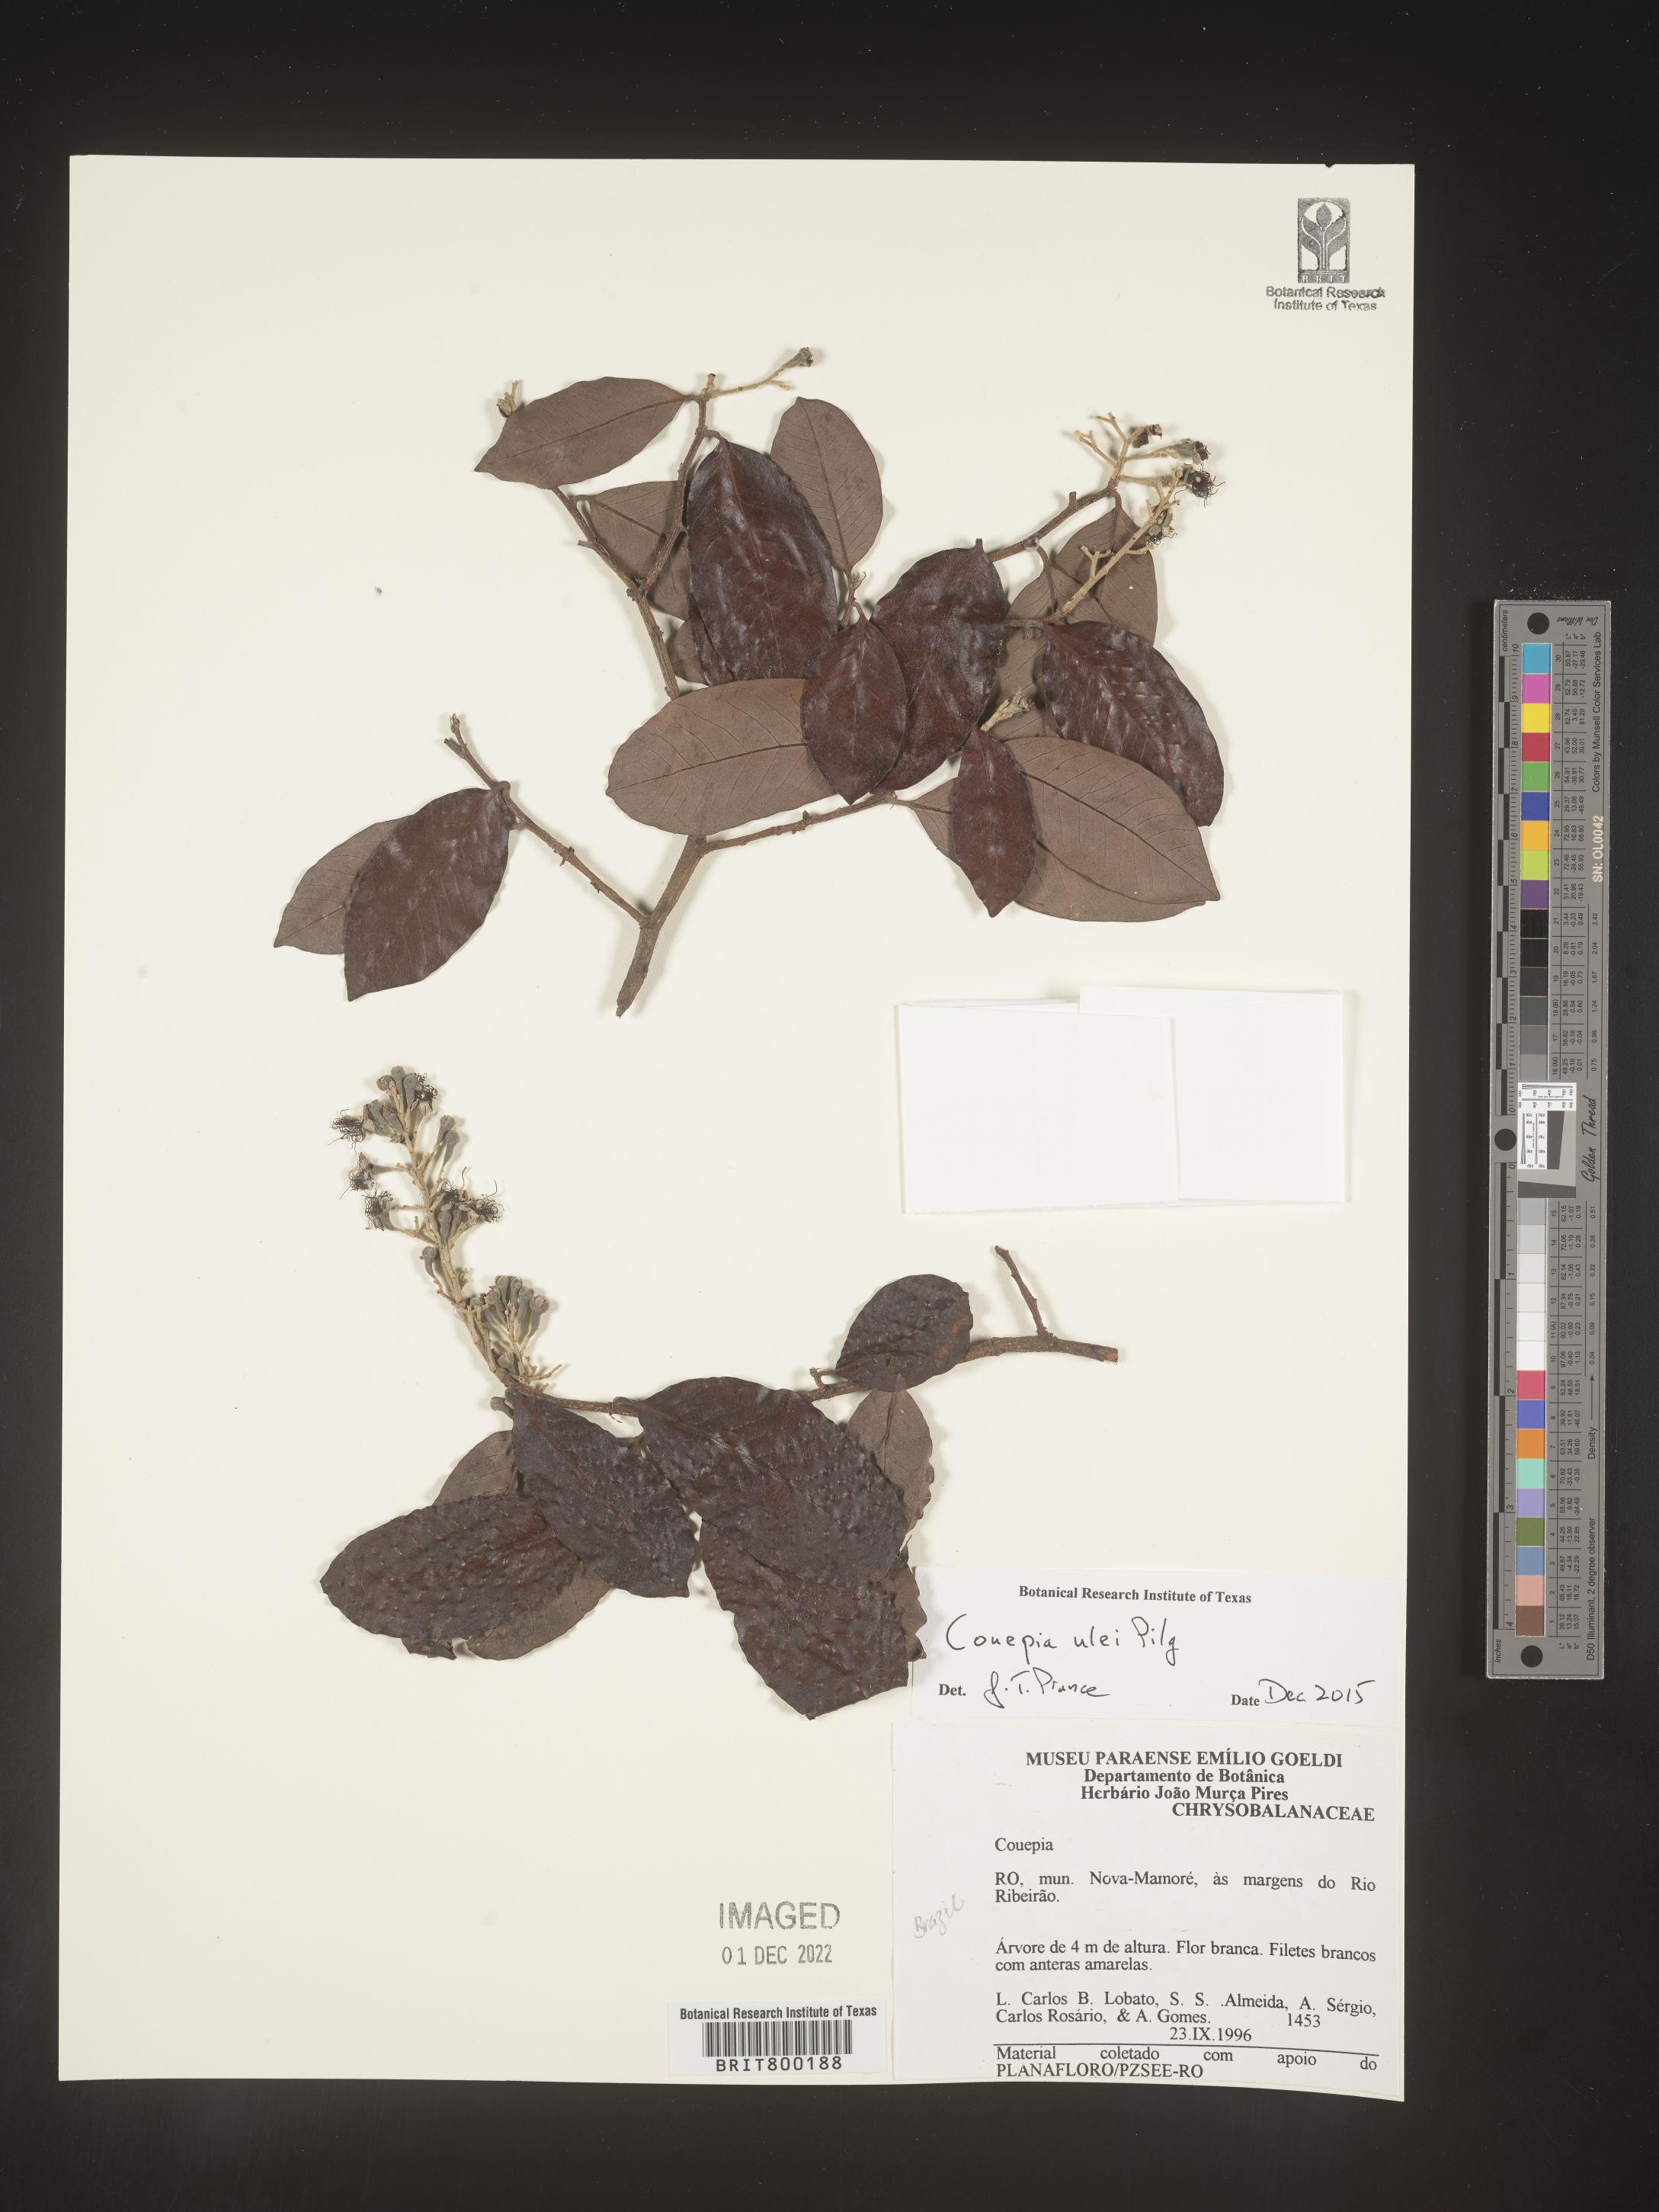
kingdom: Plantae
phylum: Tracheophyta
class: Magnoliopsida
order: Malpighiales
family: Chrysobalanaceae
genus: Couepia
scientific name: Couepia
